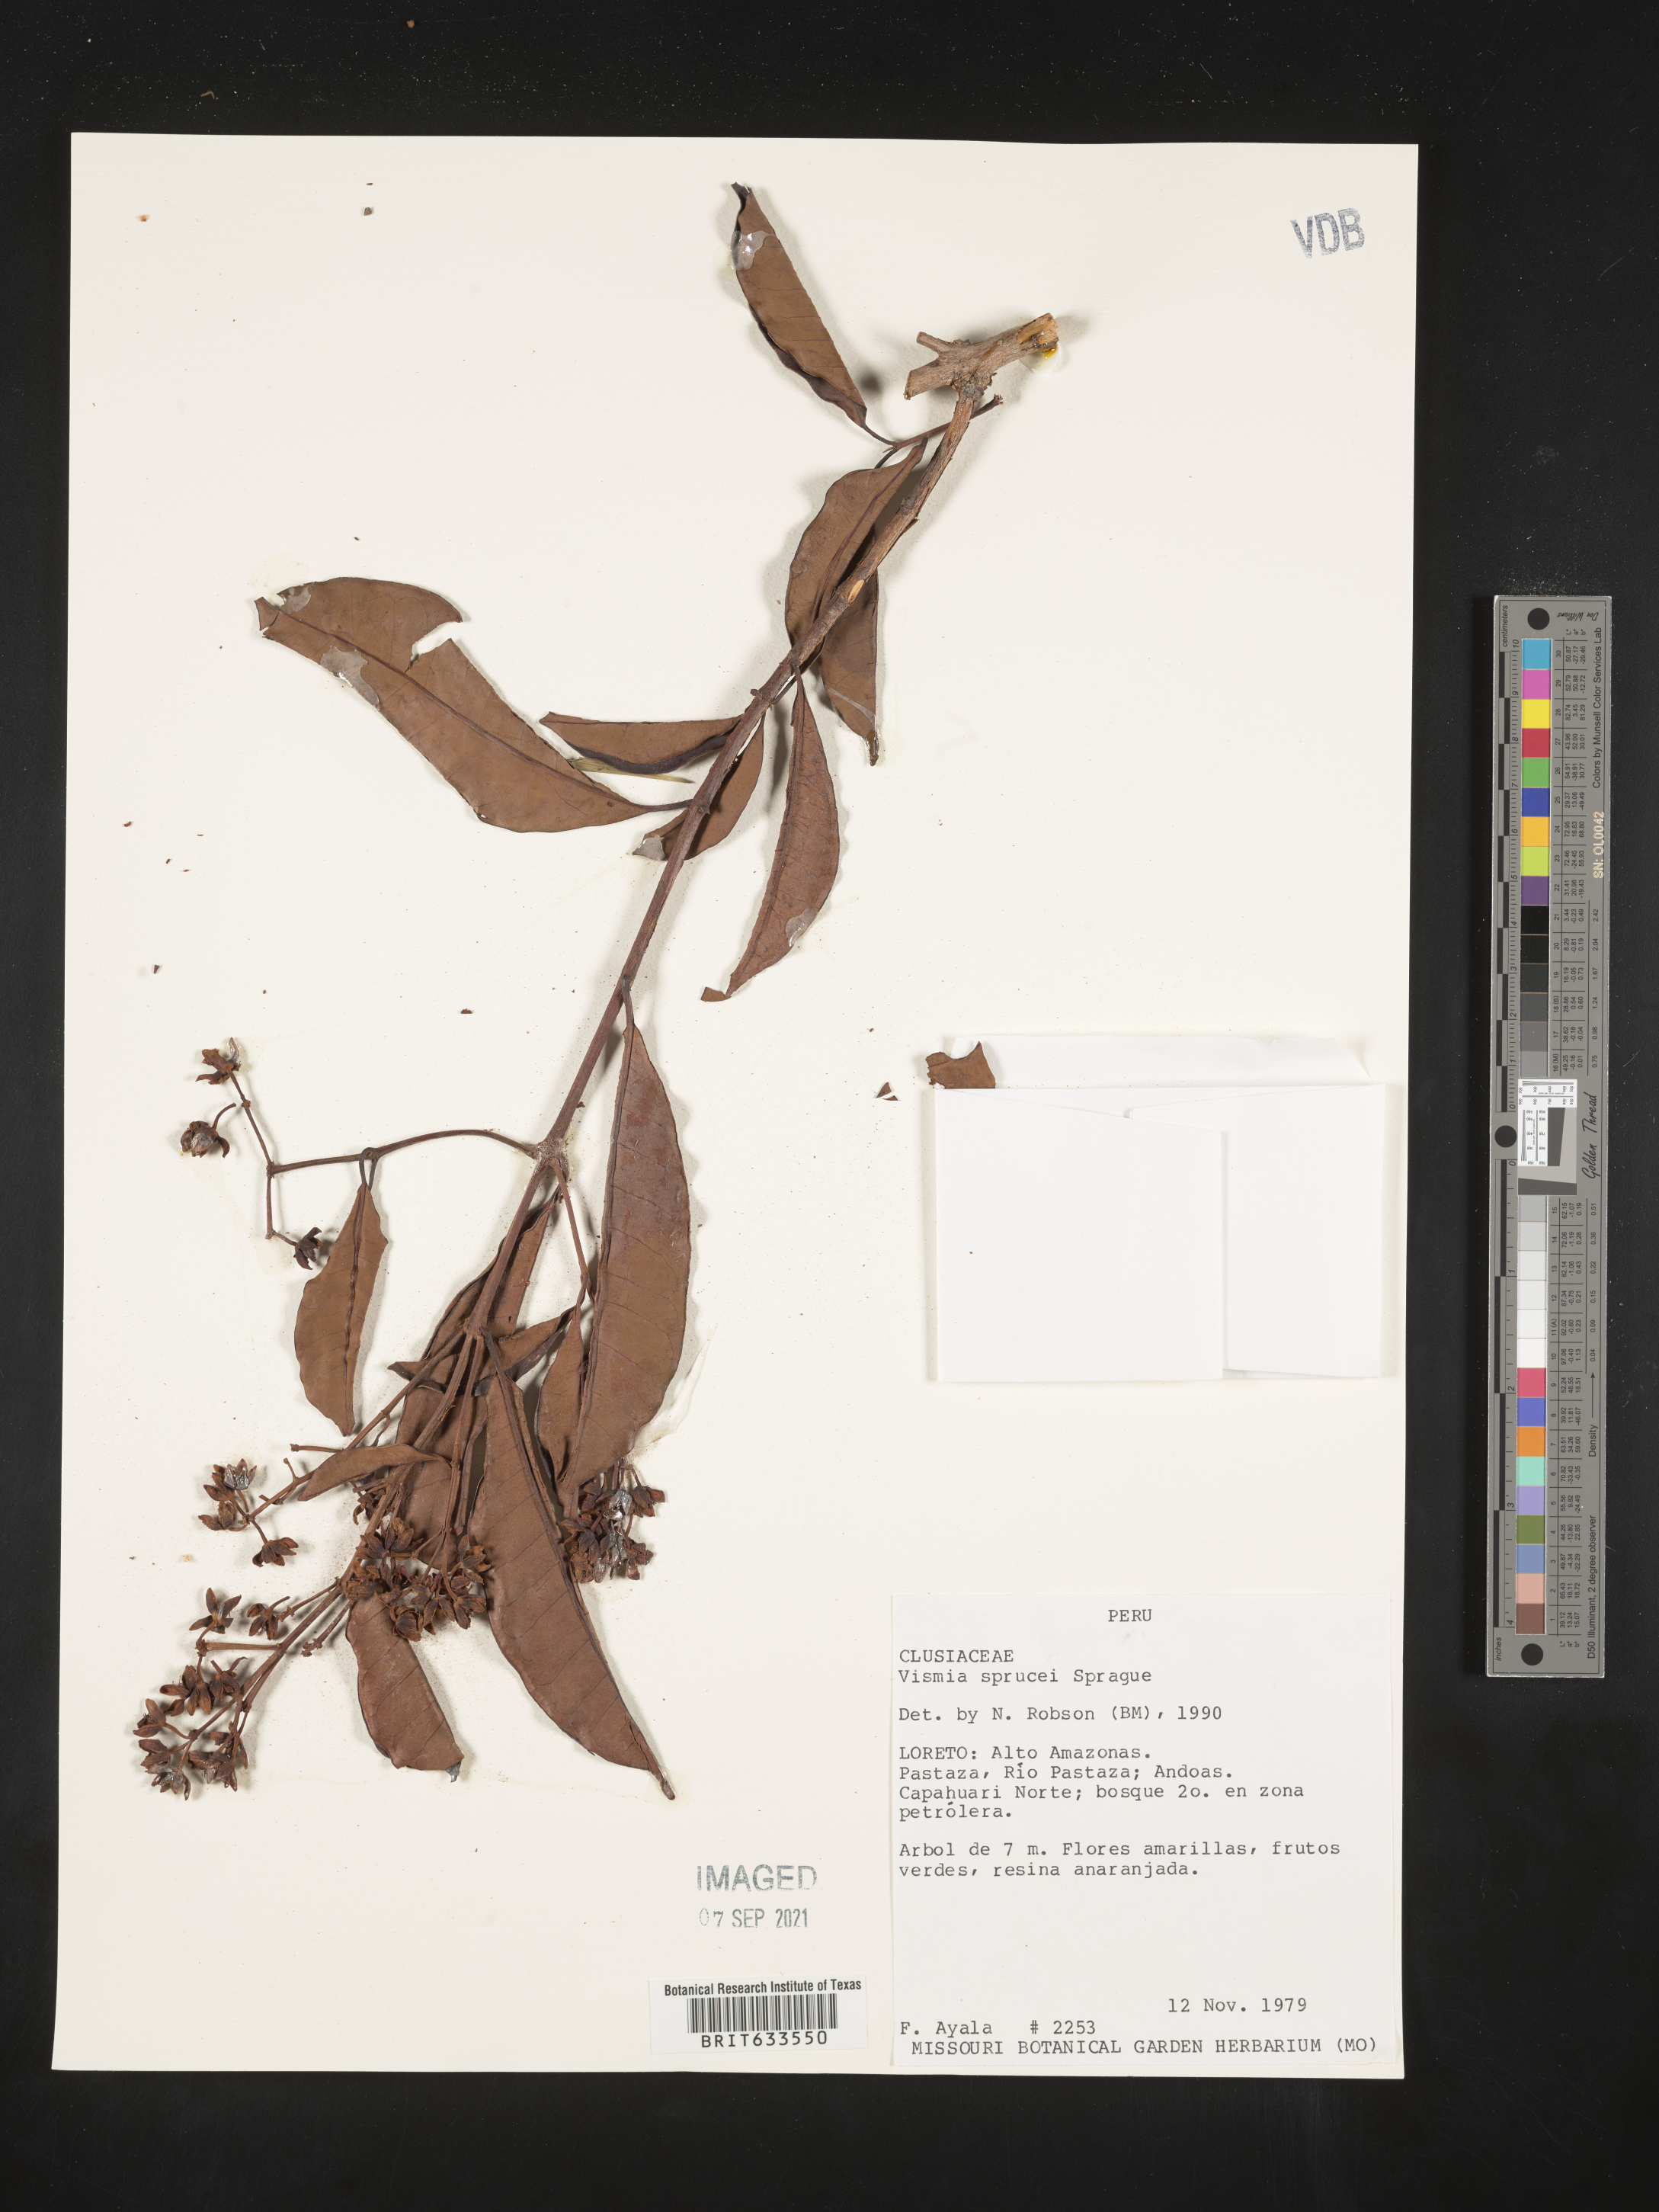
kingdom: Plantae
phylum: Tracheophyta
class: Magnoliopsida
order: Malpighiales
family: Hypericaceae
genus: Vismia
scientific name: Vismia
